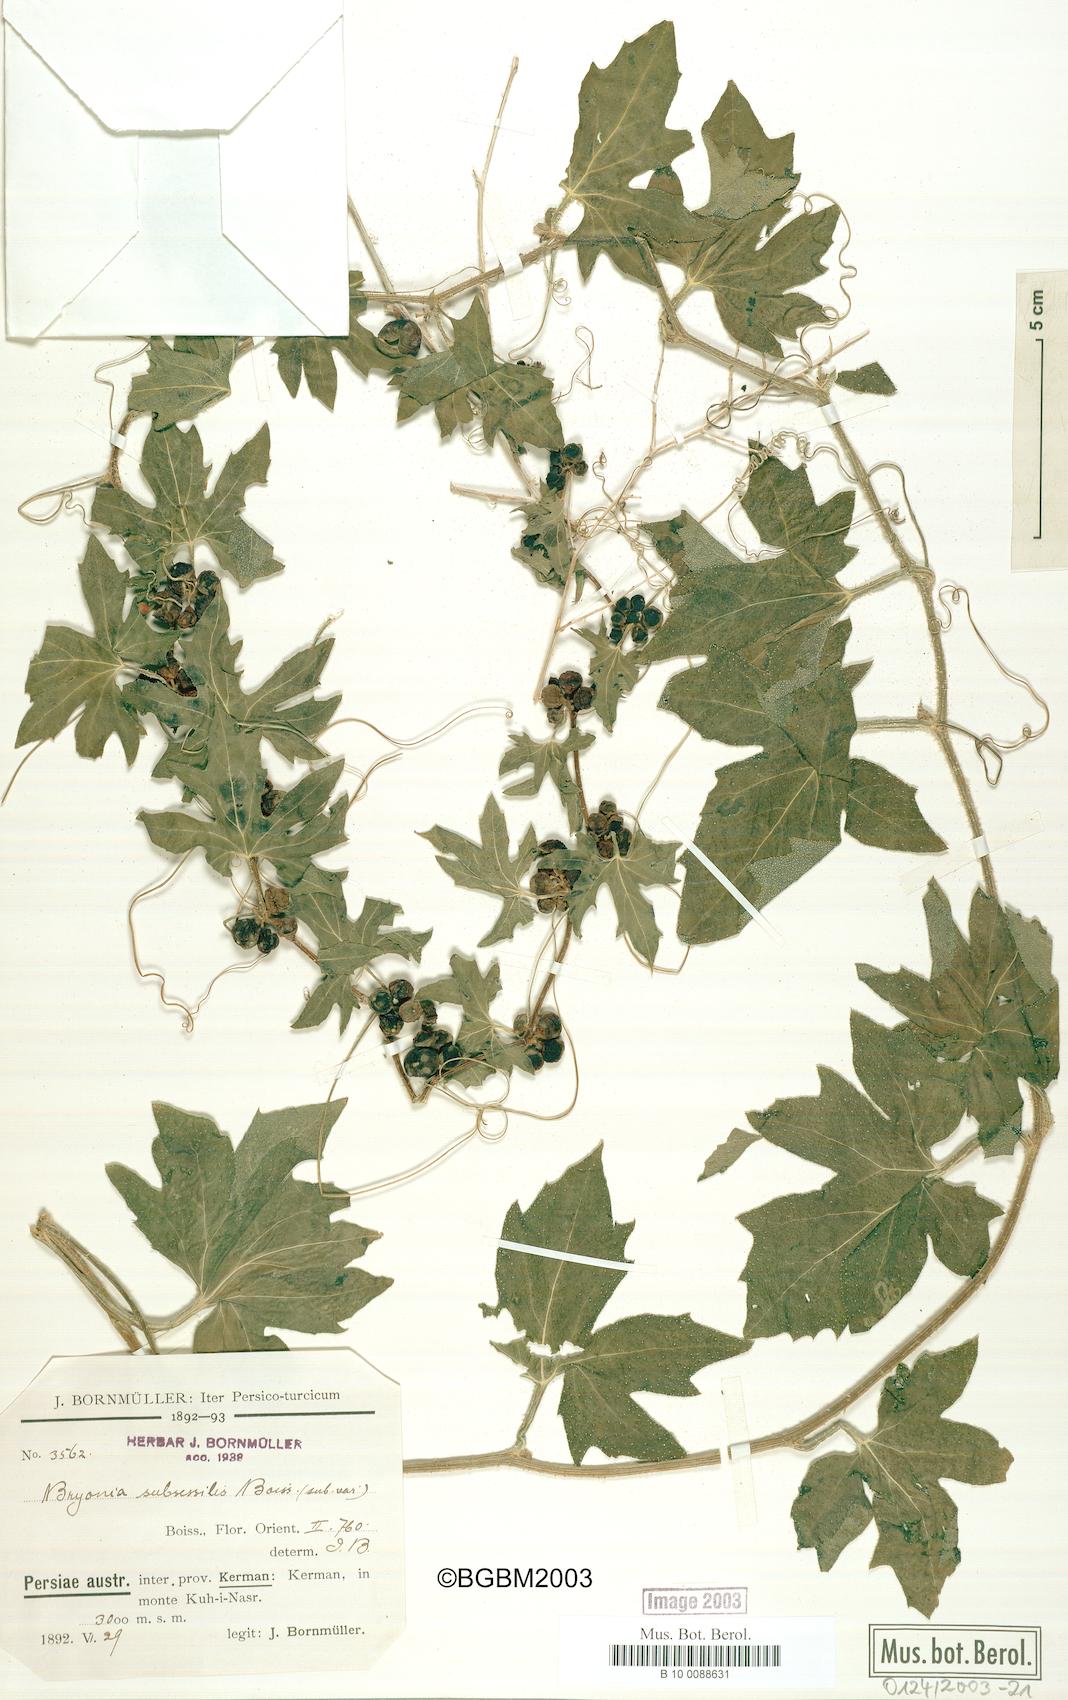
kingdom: Plantae
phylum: Tracheophyta
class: Magnoliopsida
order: Cucurbitales
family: Cucurbitaceae
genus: Bryonia
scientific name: Bryonia multiflora
